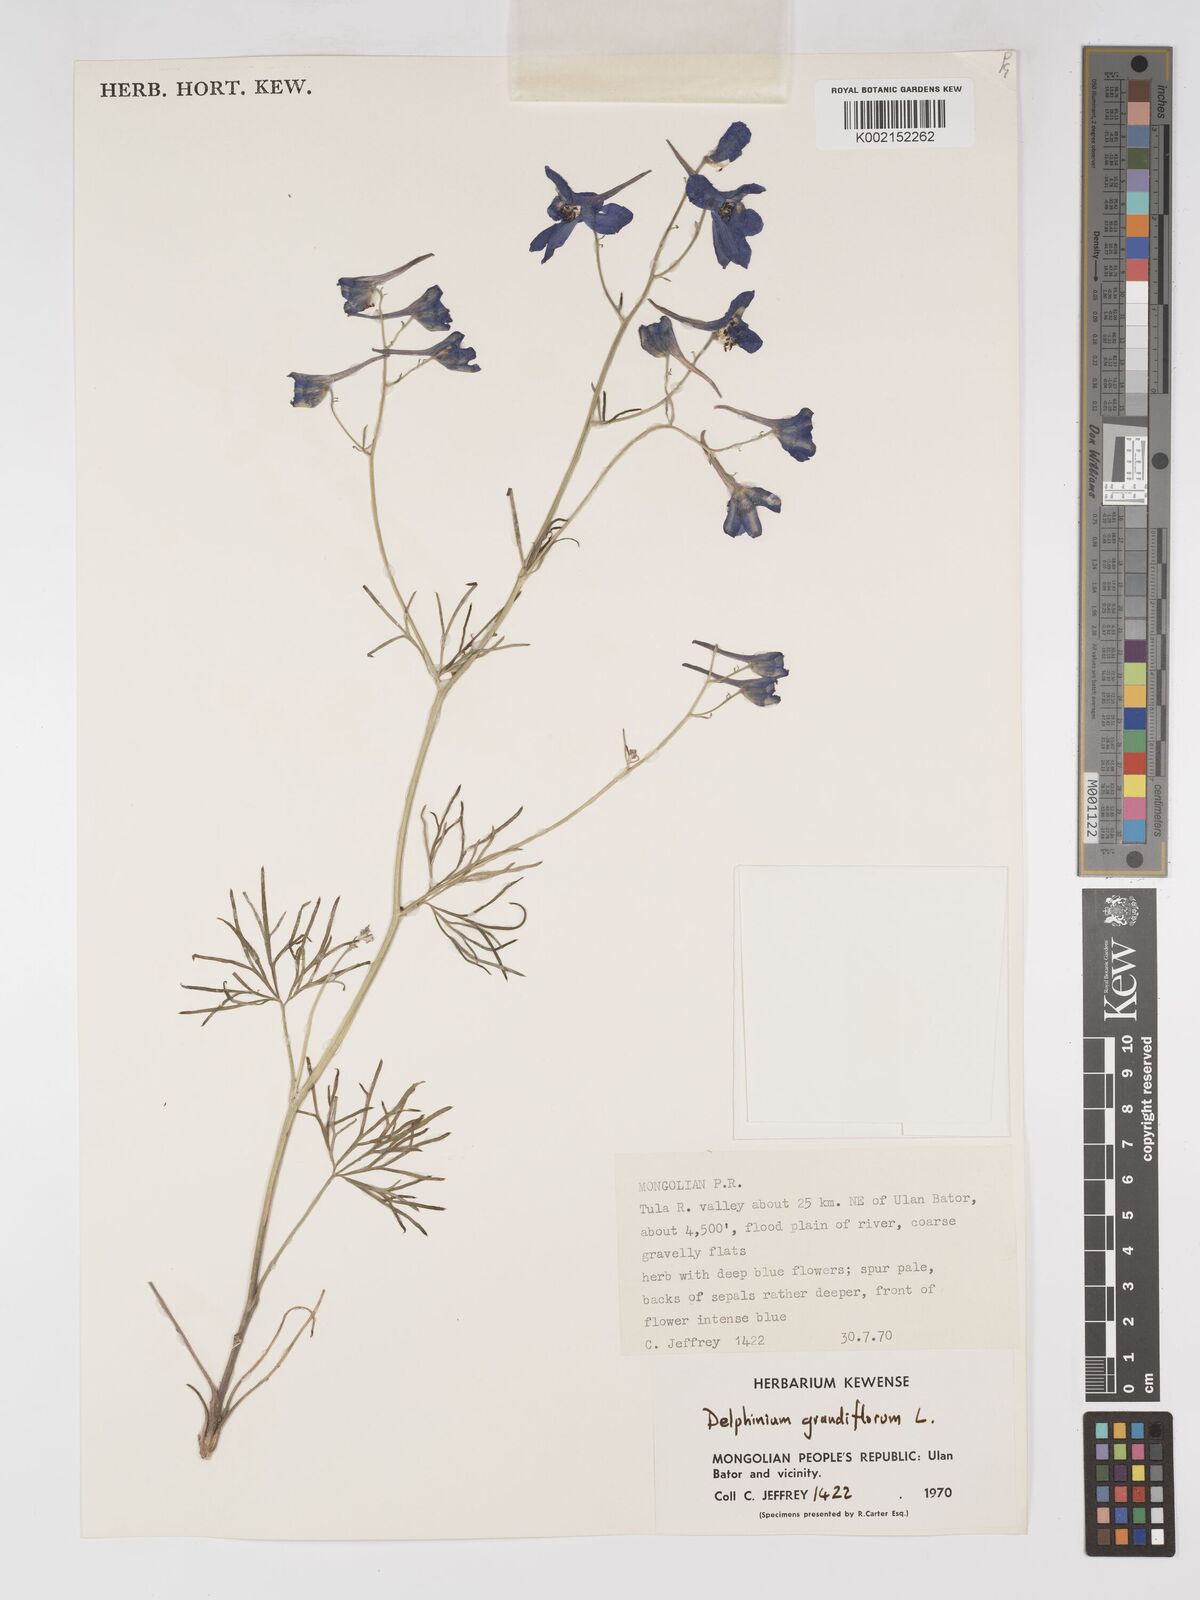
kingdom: Plantae
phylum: Tracheophyta
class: Magnoliopsida
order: Ranunculales
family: Ranunculaceae
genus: Delphinium
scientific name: Delphinium grandiflorum
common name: Siberian larkspur
